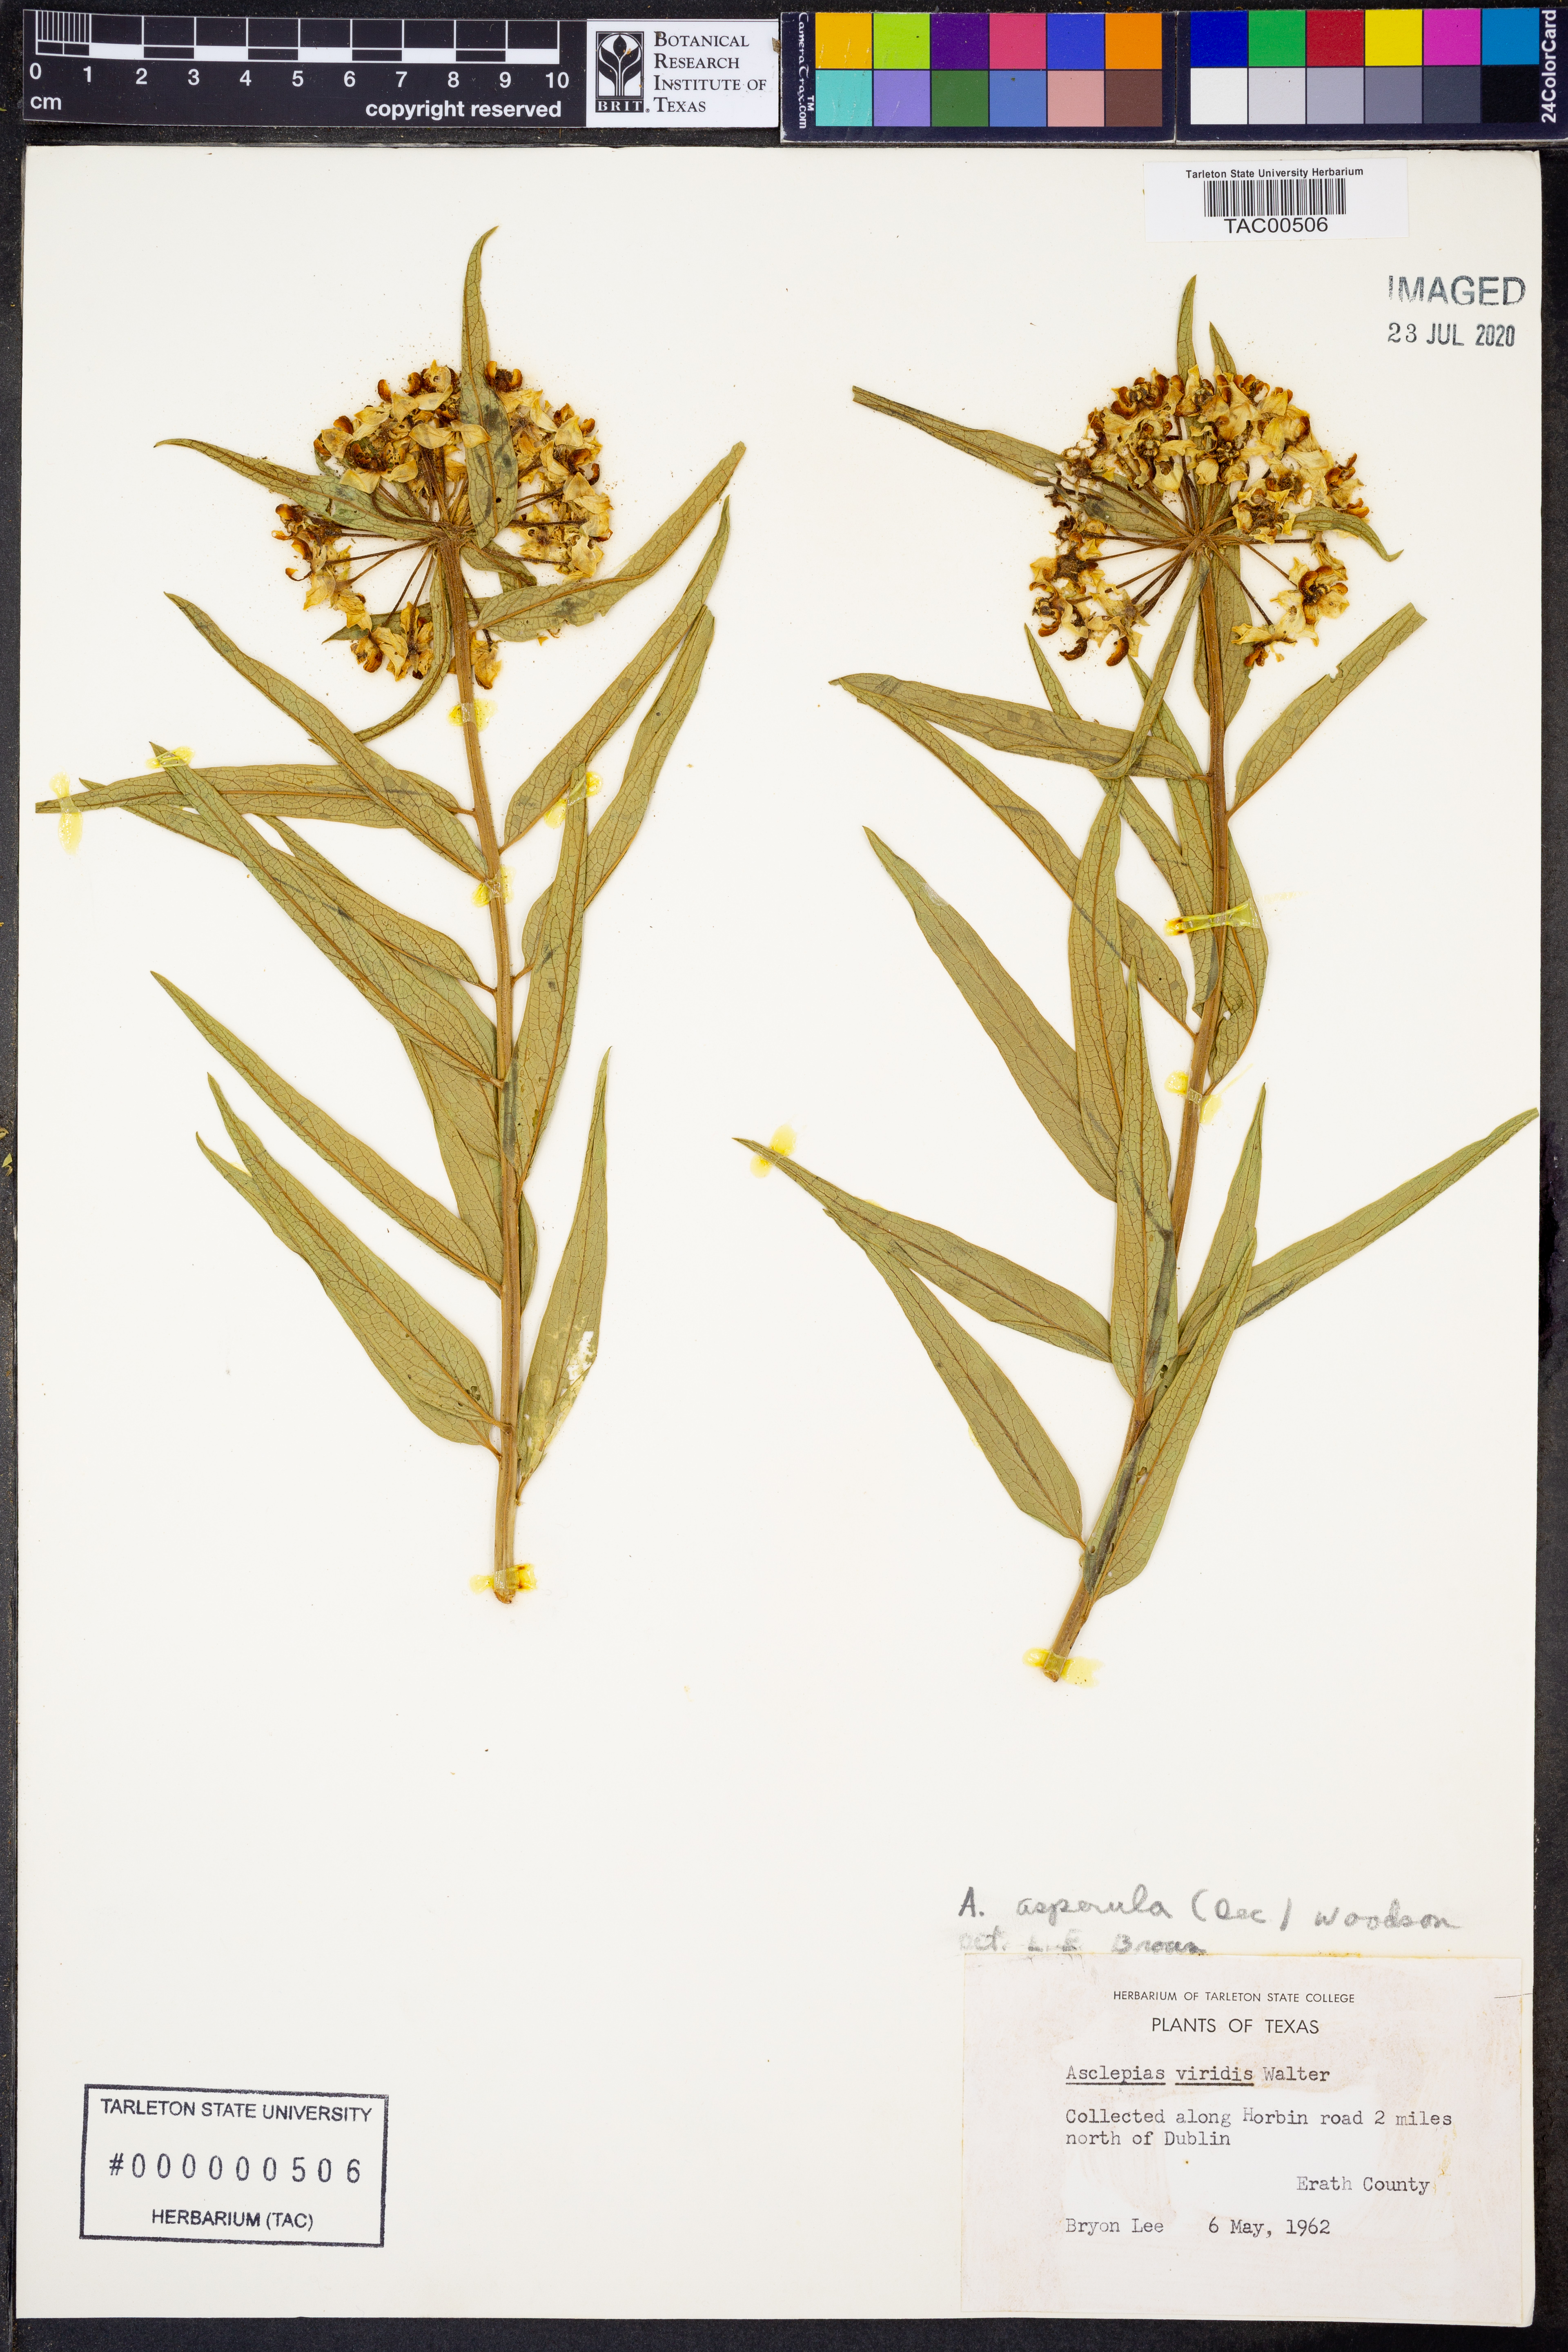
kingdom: Plantae
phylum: Tracheophyta
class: Magnoliopsida
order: Gentianales
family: Apocynaceae
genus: Asclepias
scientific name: Asclepias asperula
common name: Antelope horns
